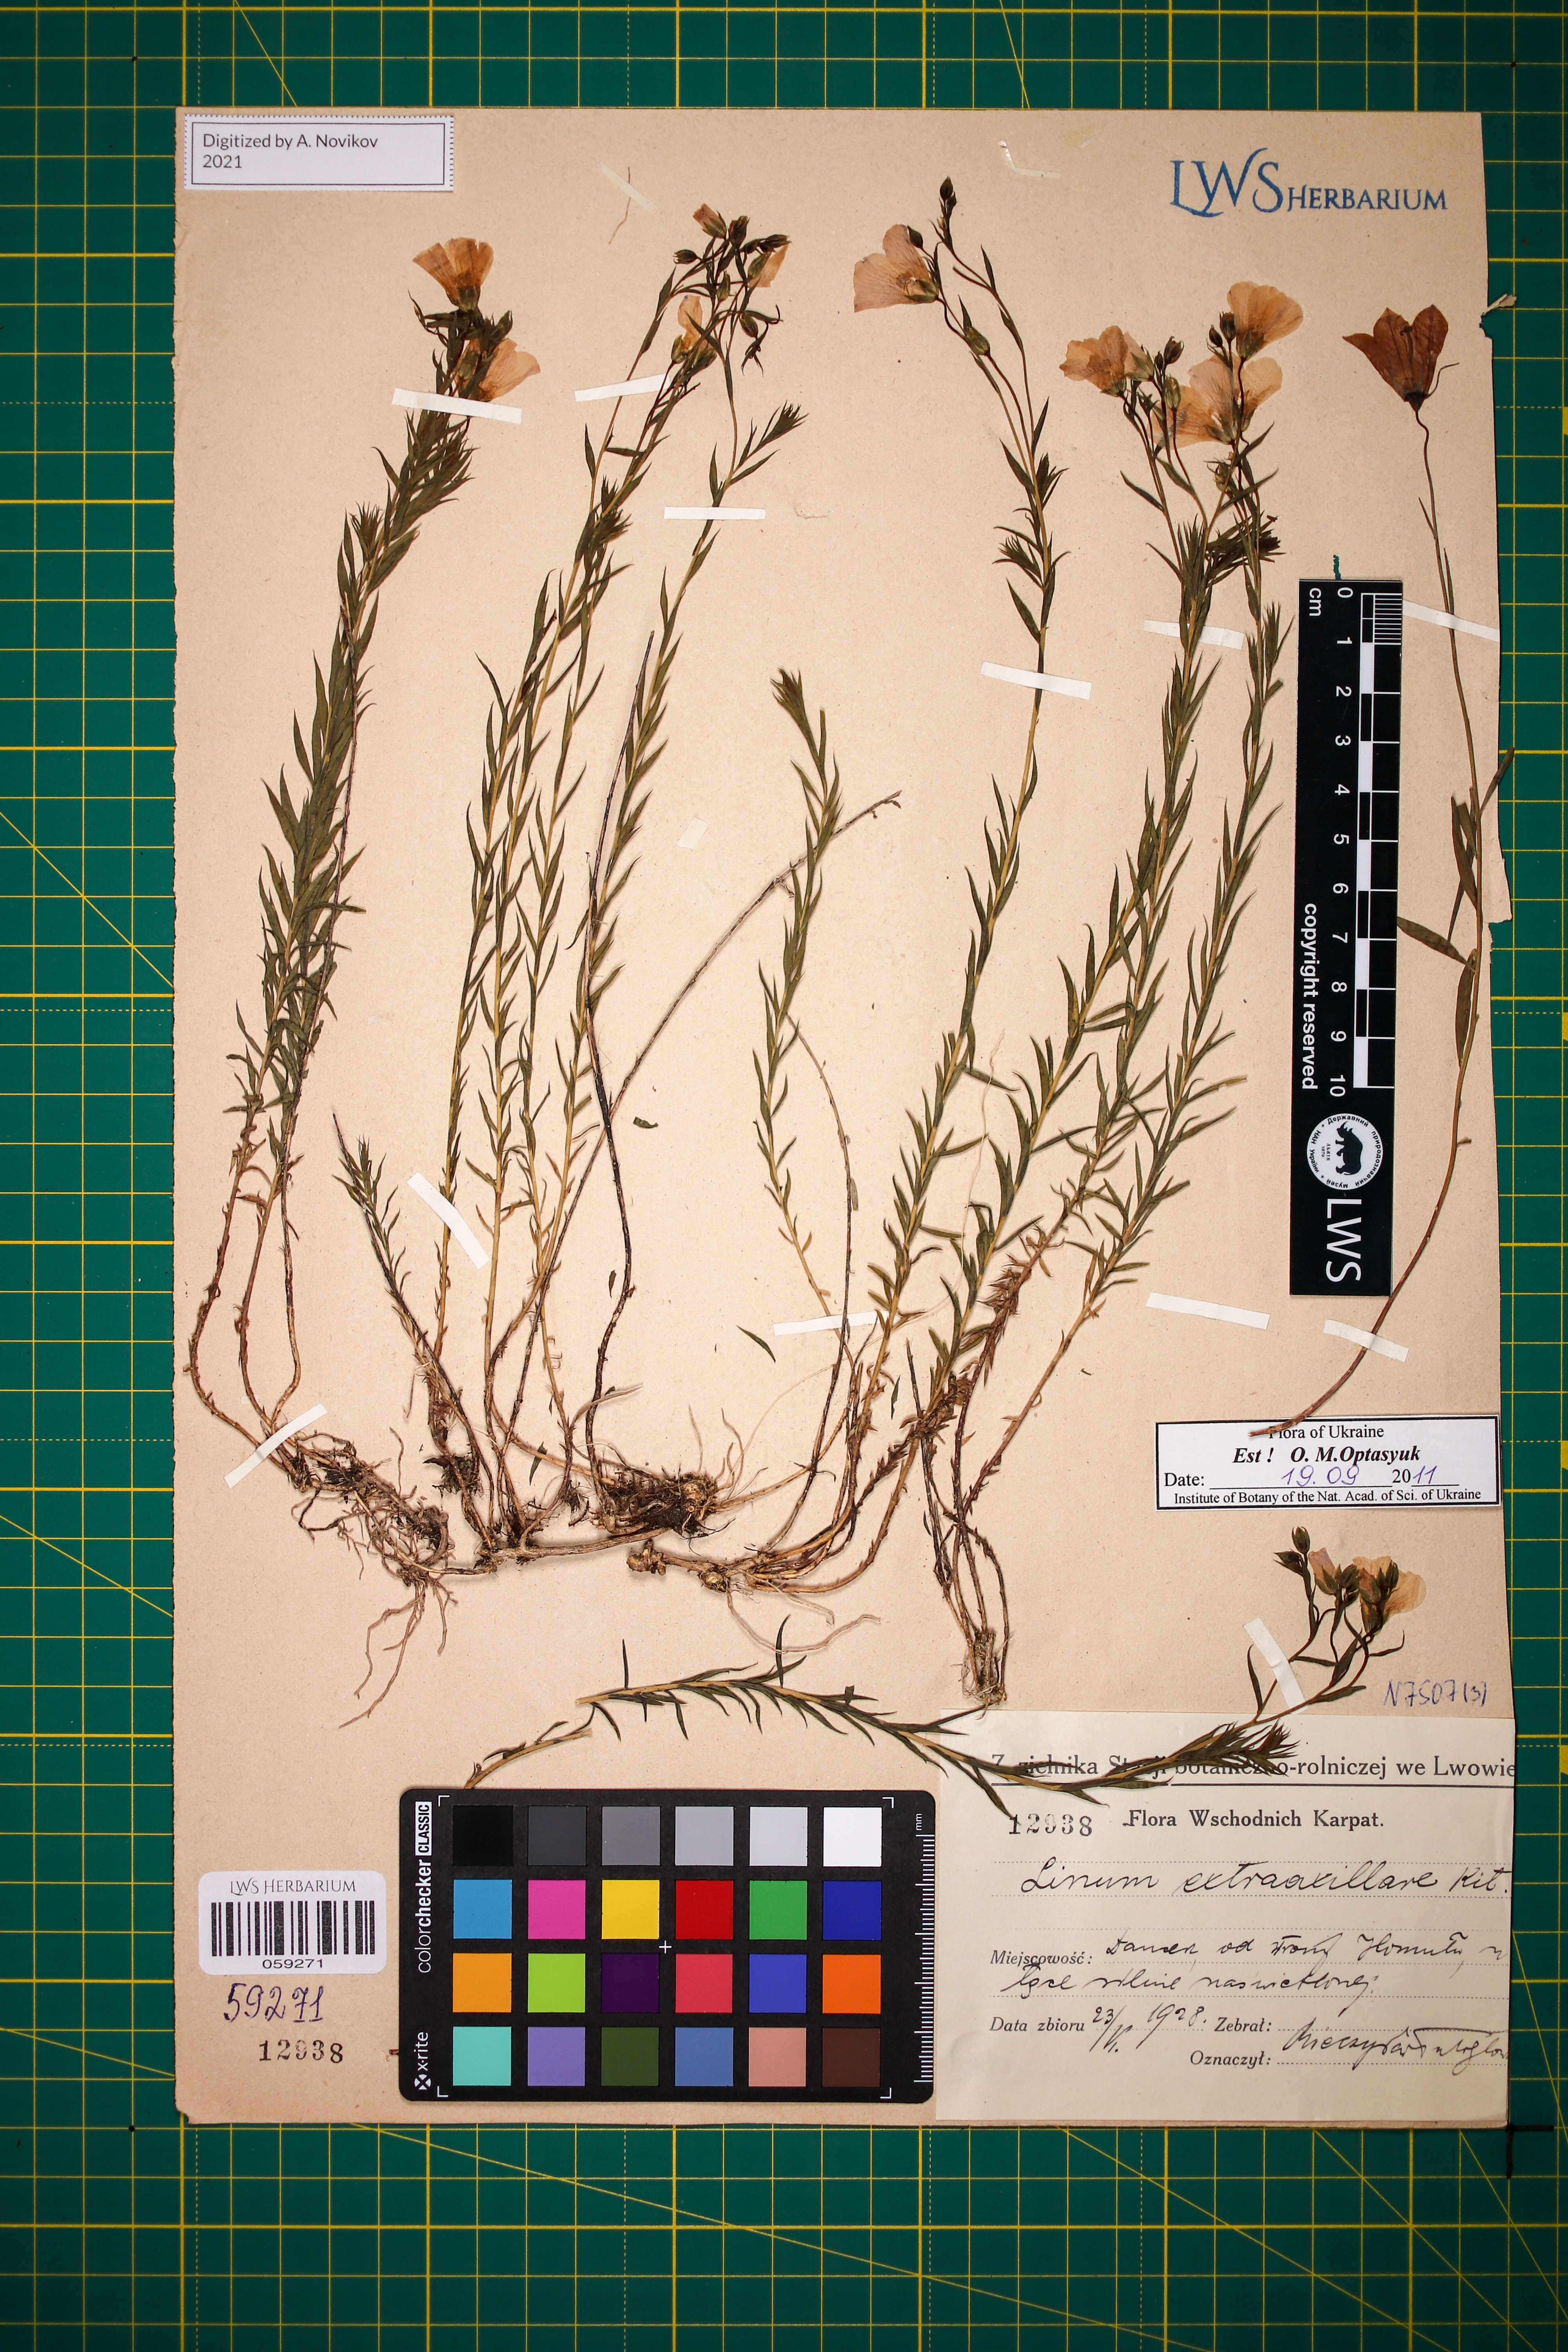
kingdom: Plantae
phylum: Tracheophyta
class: Magnoliopsida
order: Malpighiales
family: Linaceae
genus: Linum
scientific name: Linum perenne
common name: Blue flax
